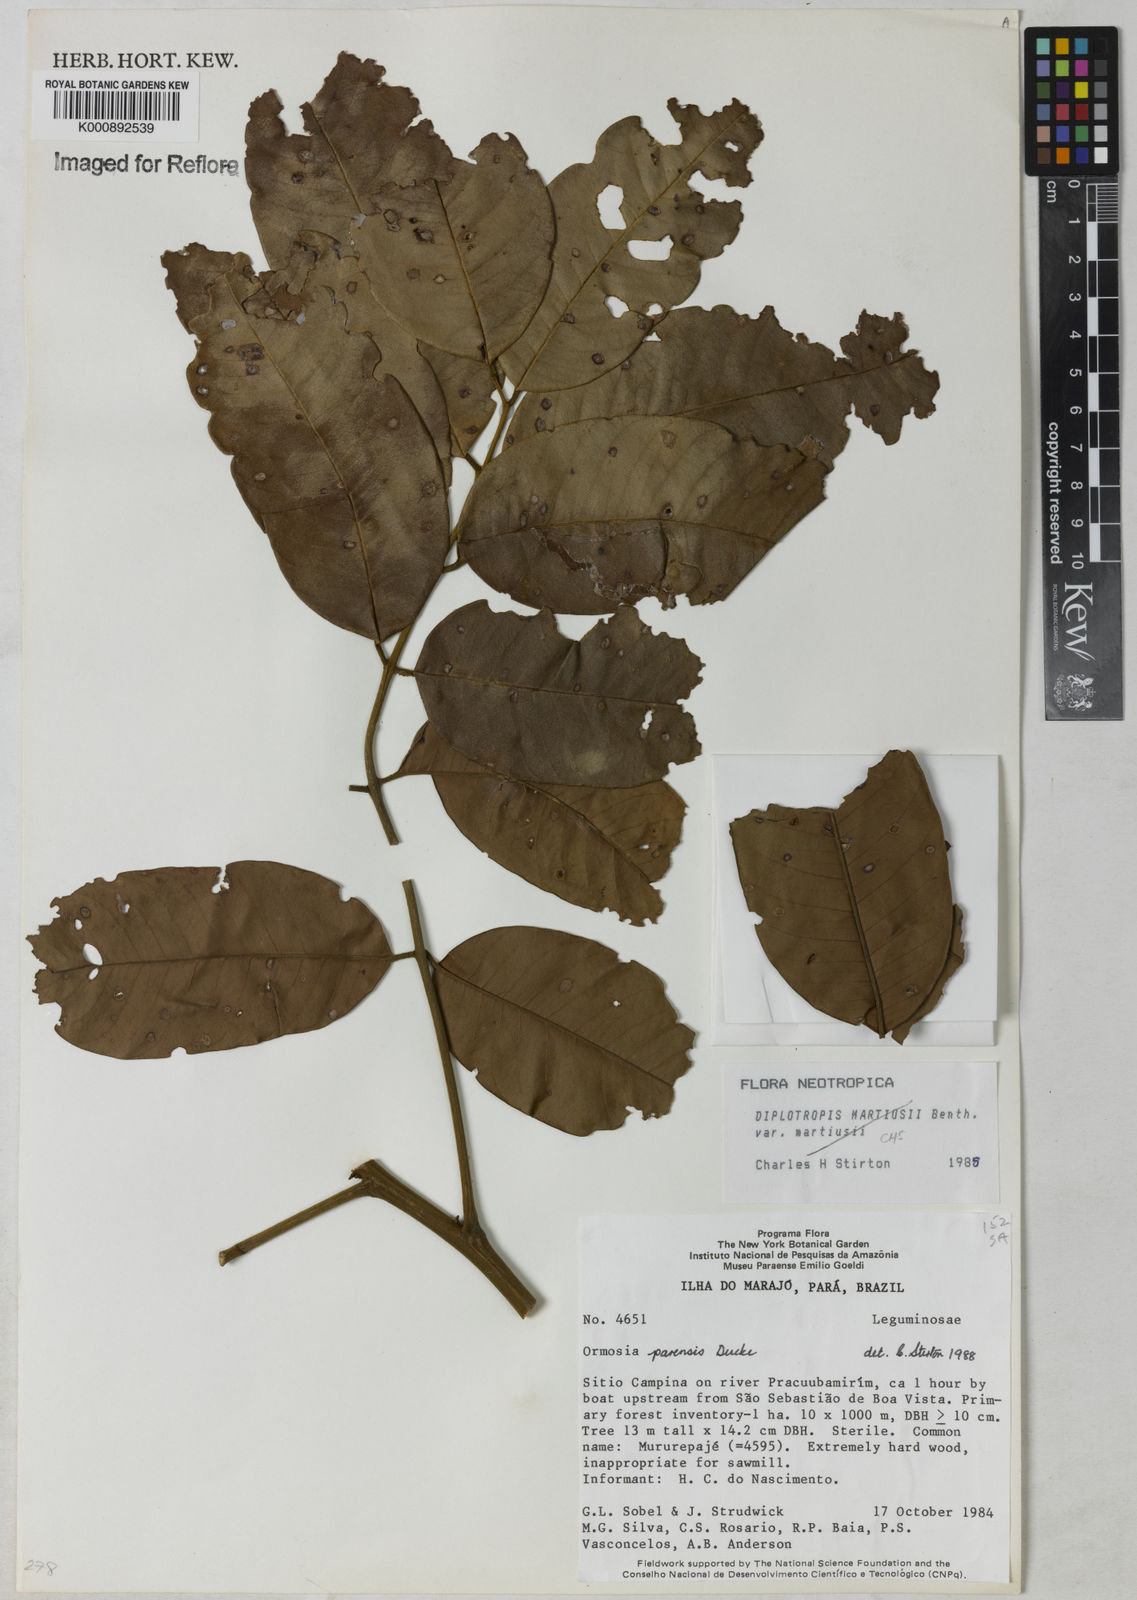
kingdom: Plantae
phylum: Tracheophyta
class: Magnoliopsida
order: Fabales
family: Fabaceae
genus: Ormosia
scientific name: Ormosia paraensis
